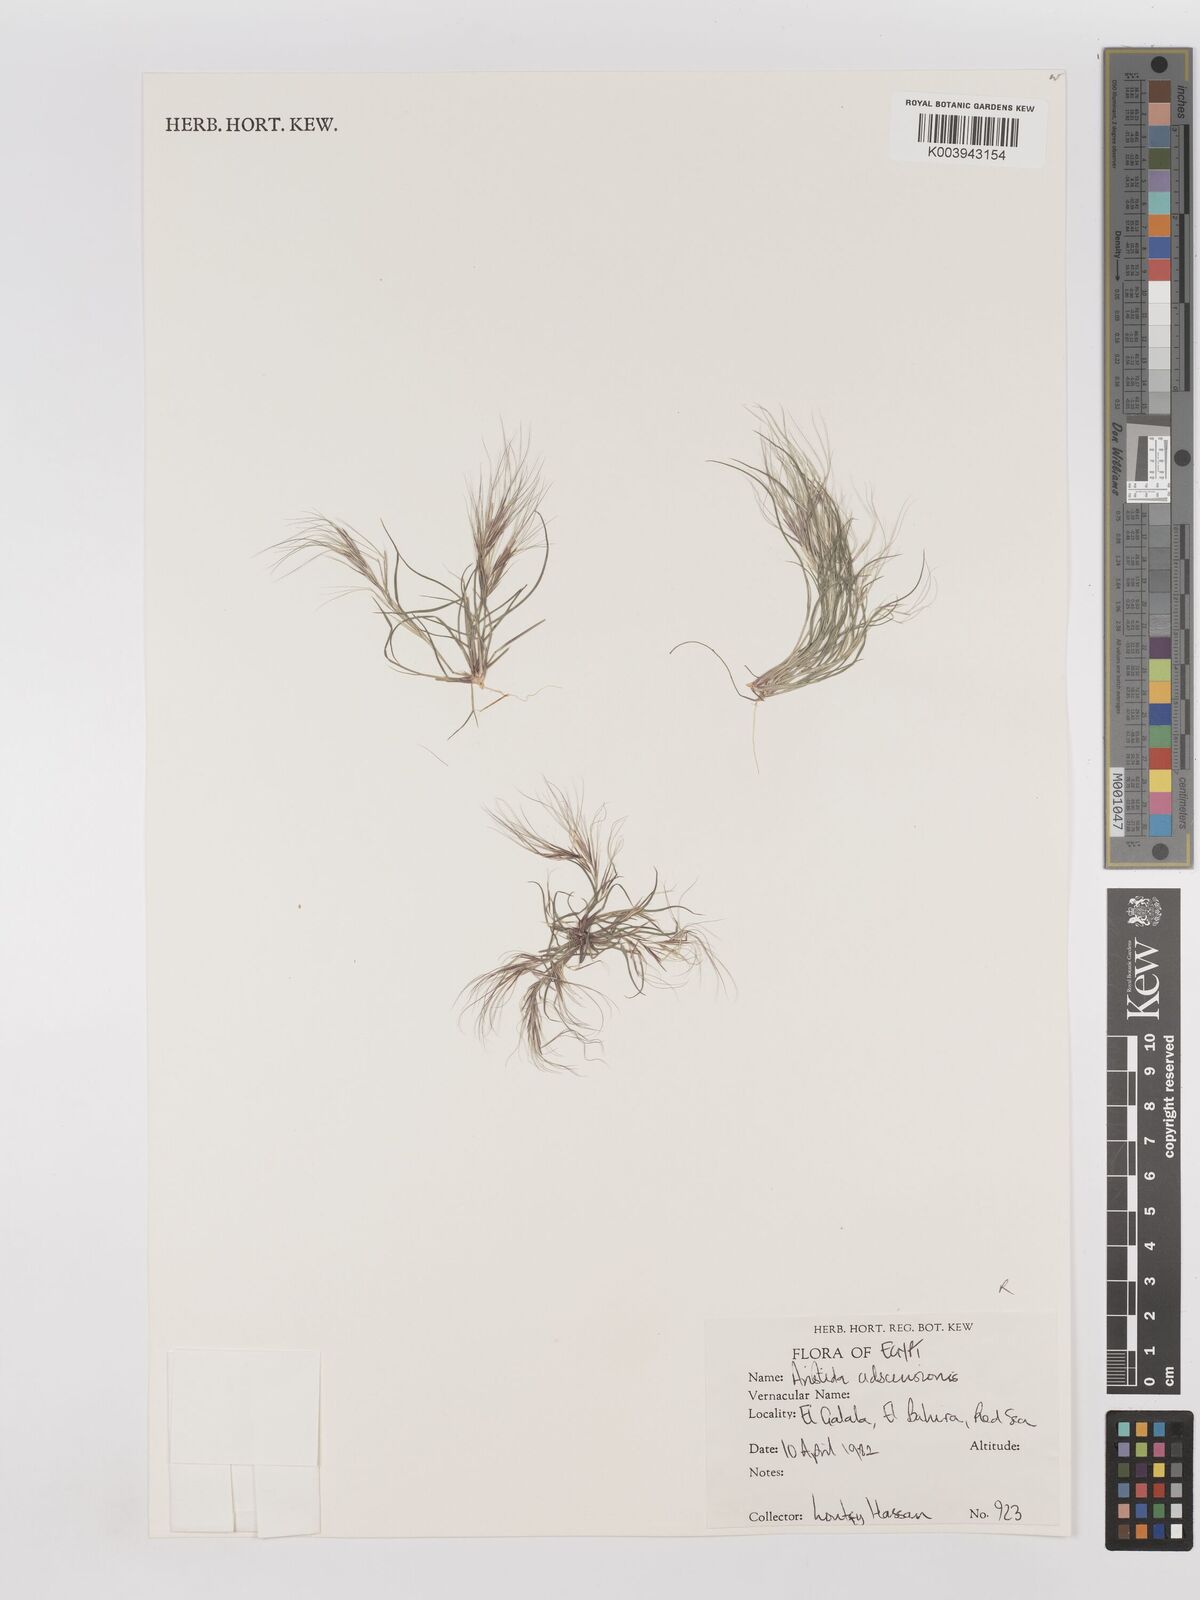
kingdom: Plantae
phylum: Tracheophyta
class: Liliopsida
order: Poales
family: Poaceae
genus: Aristida
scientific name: Aristida adscensionis
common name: Sixweeks threeawn
